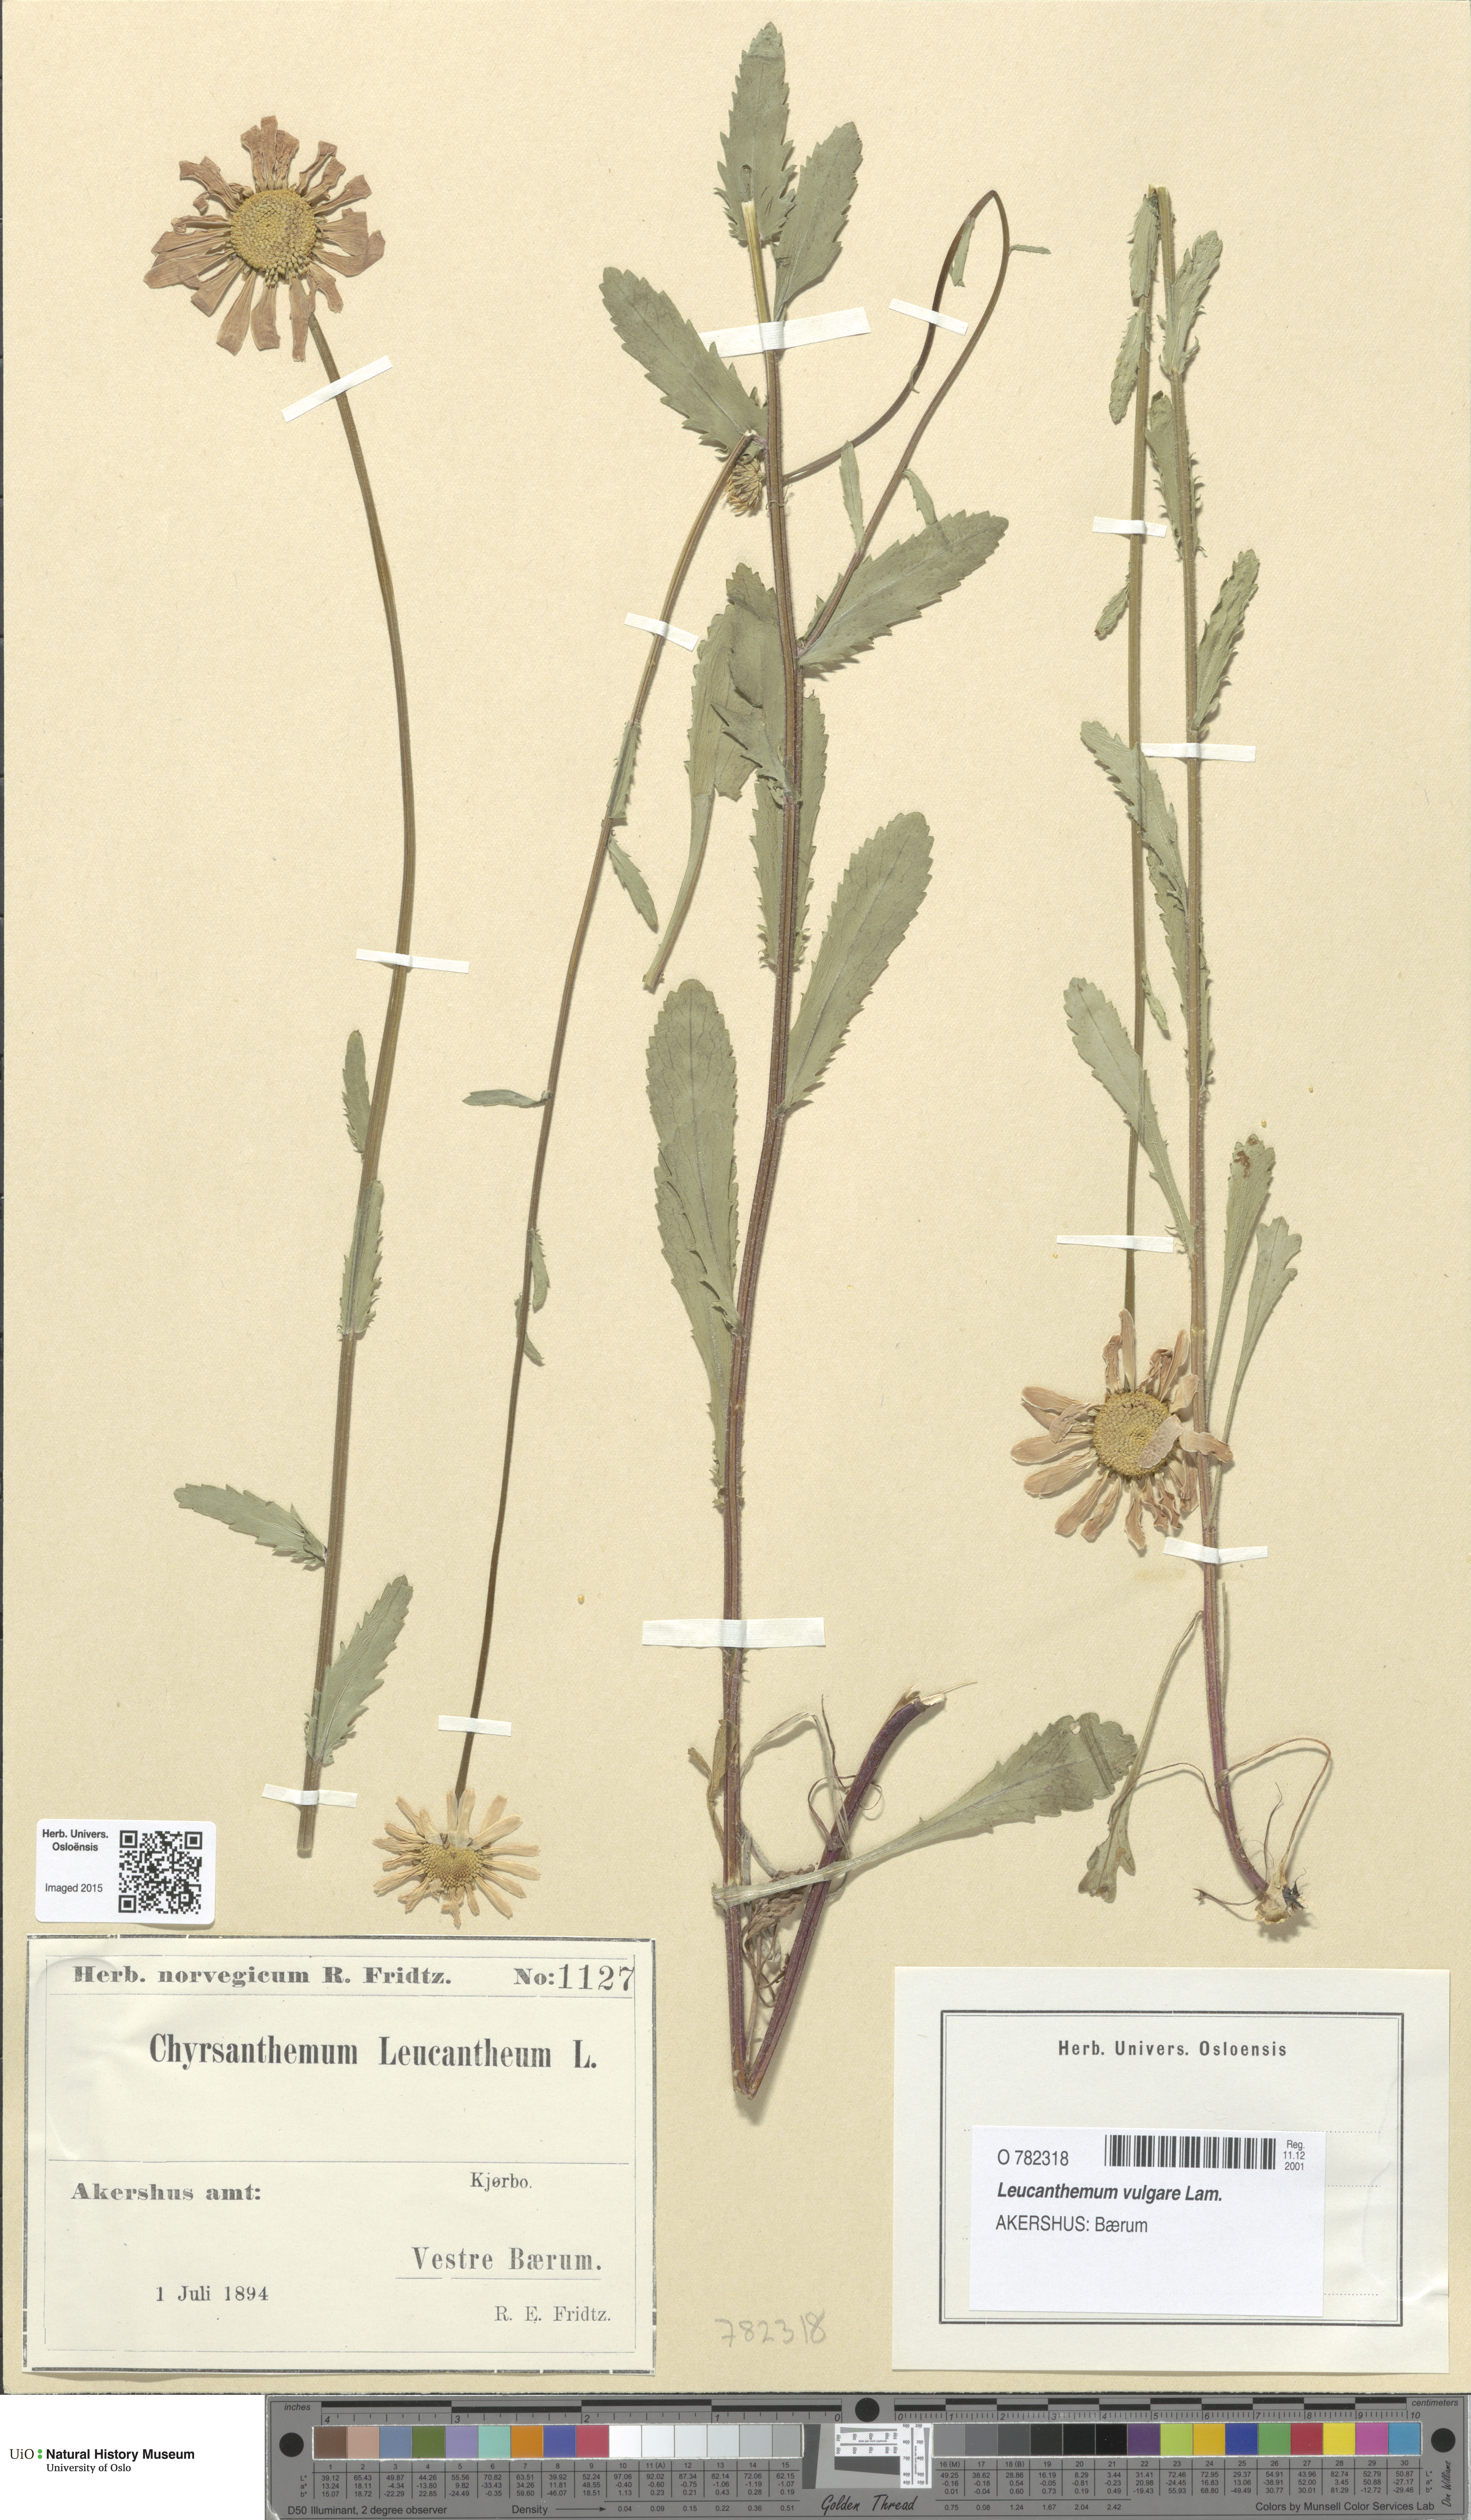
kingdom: Plantae
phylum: Tracheophyta
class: Magnoliopsida
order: Asterales
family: Asteraceae
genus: Leucanthemum
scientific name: Leucanthemum vulgare
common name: Oxeye daisy
